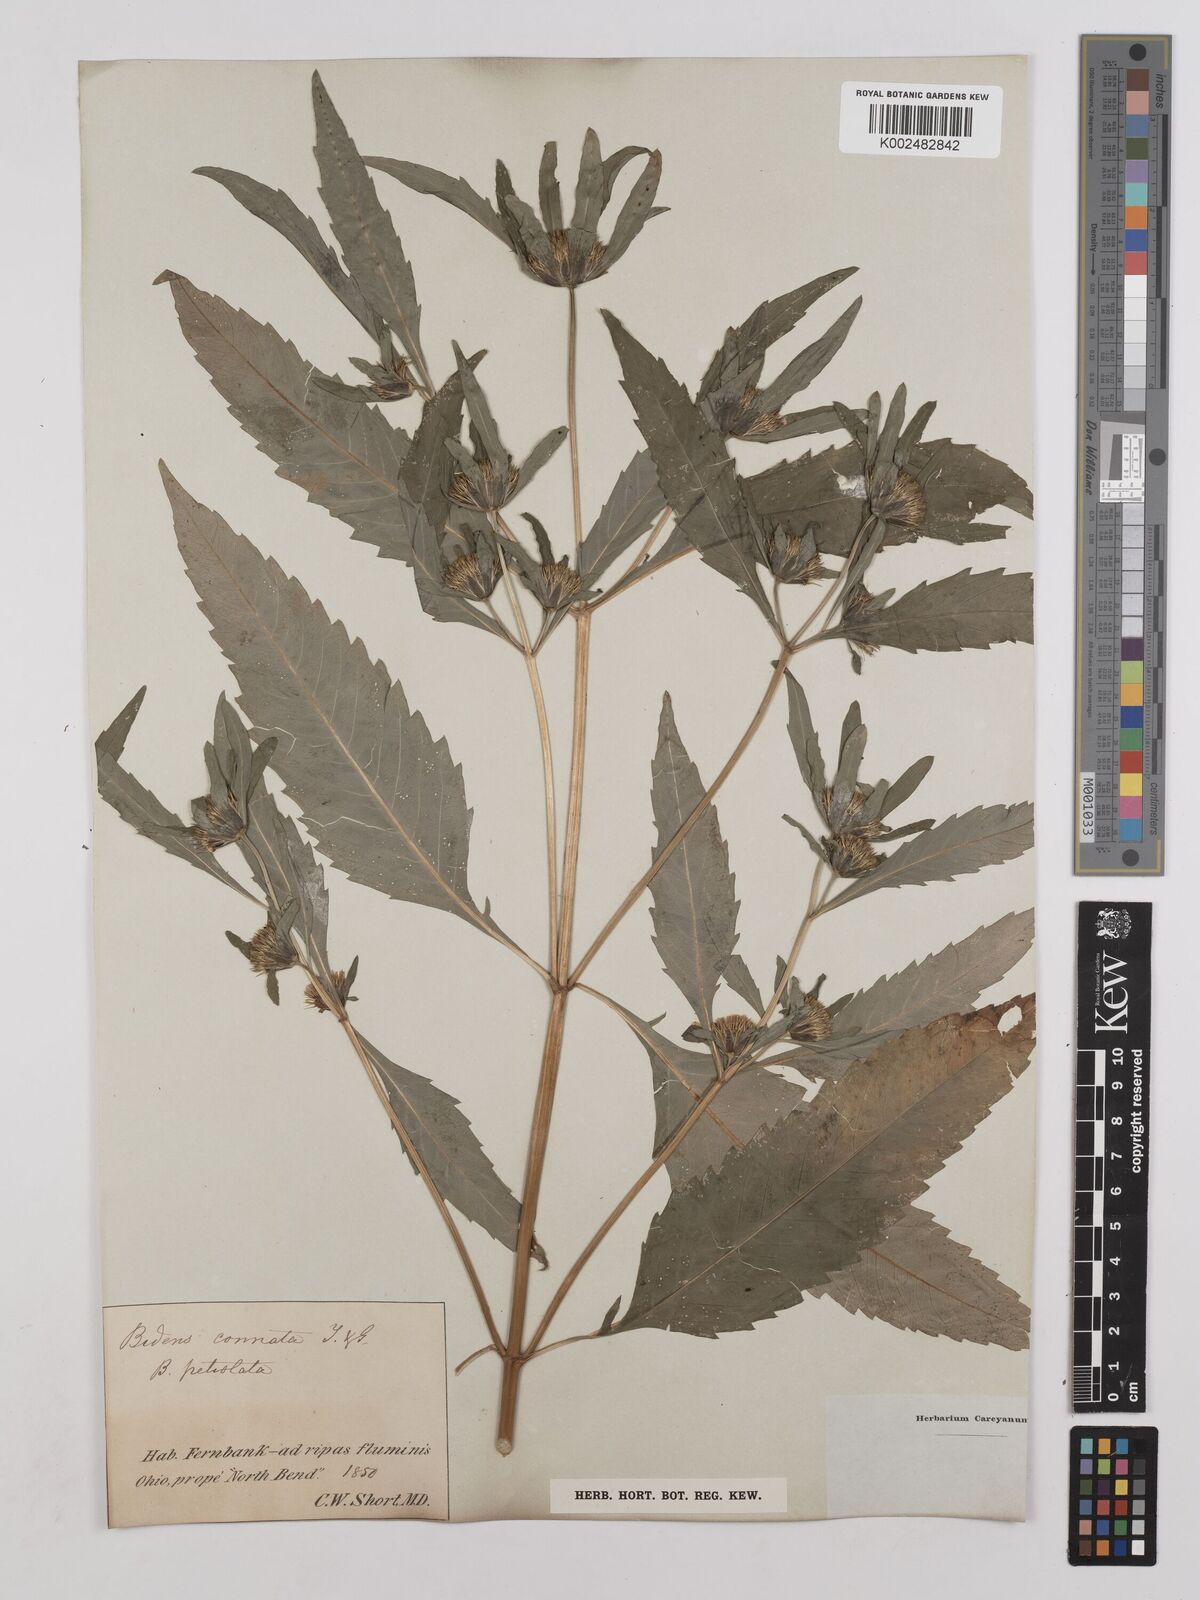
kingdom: Plantae
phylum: Tracheophyta
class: Magnoliopsida
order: Asterales
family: Asteraceae
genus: Bidens
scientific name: Bidens connata
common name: London bur-marigold
